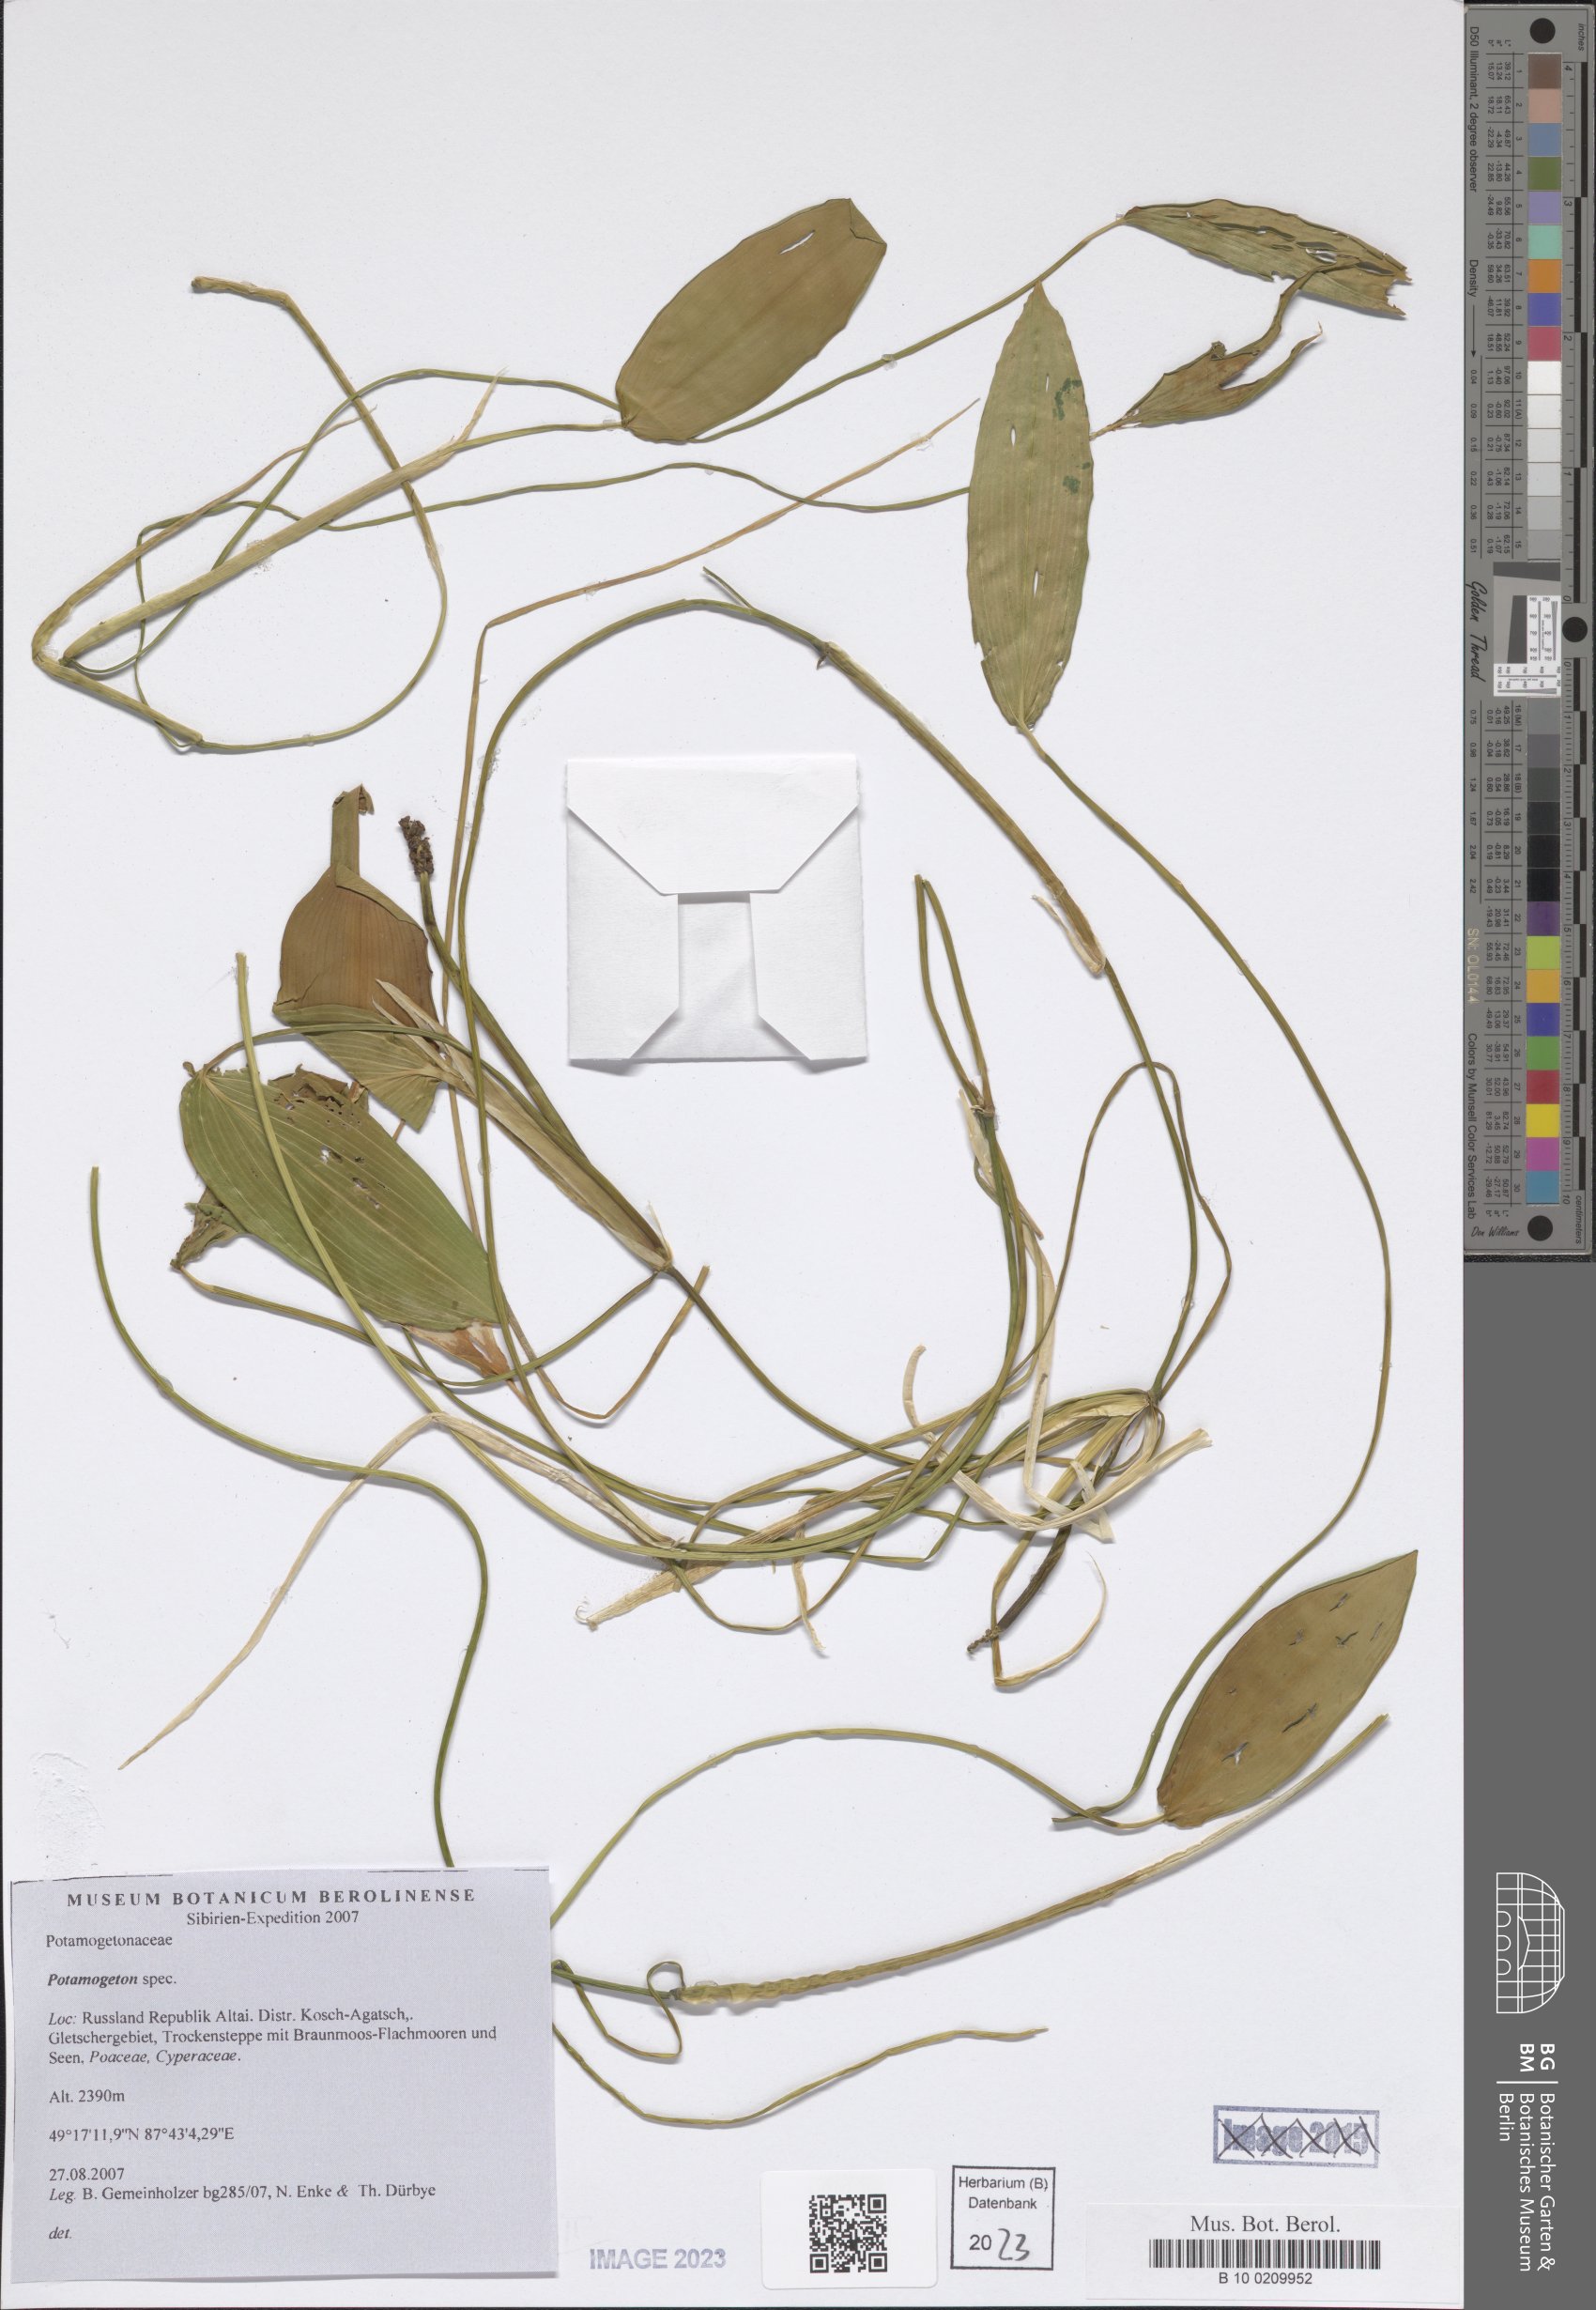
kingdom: Plantae
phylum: Tracheophyta
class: Liliopsida
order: Alismatales
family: Potamogetonaceae
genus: Potamogeton
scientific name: Potamogeton natans
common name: Broad-leaved pondweed
